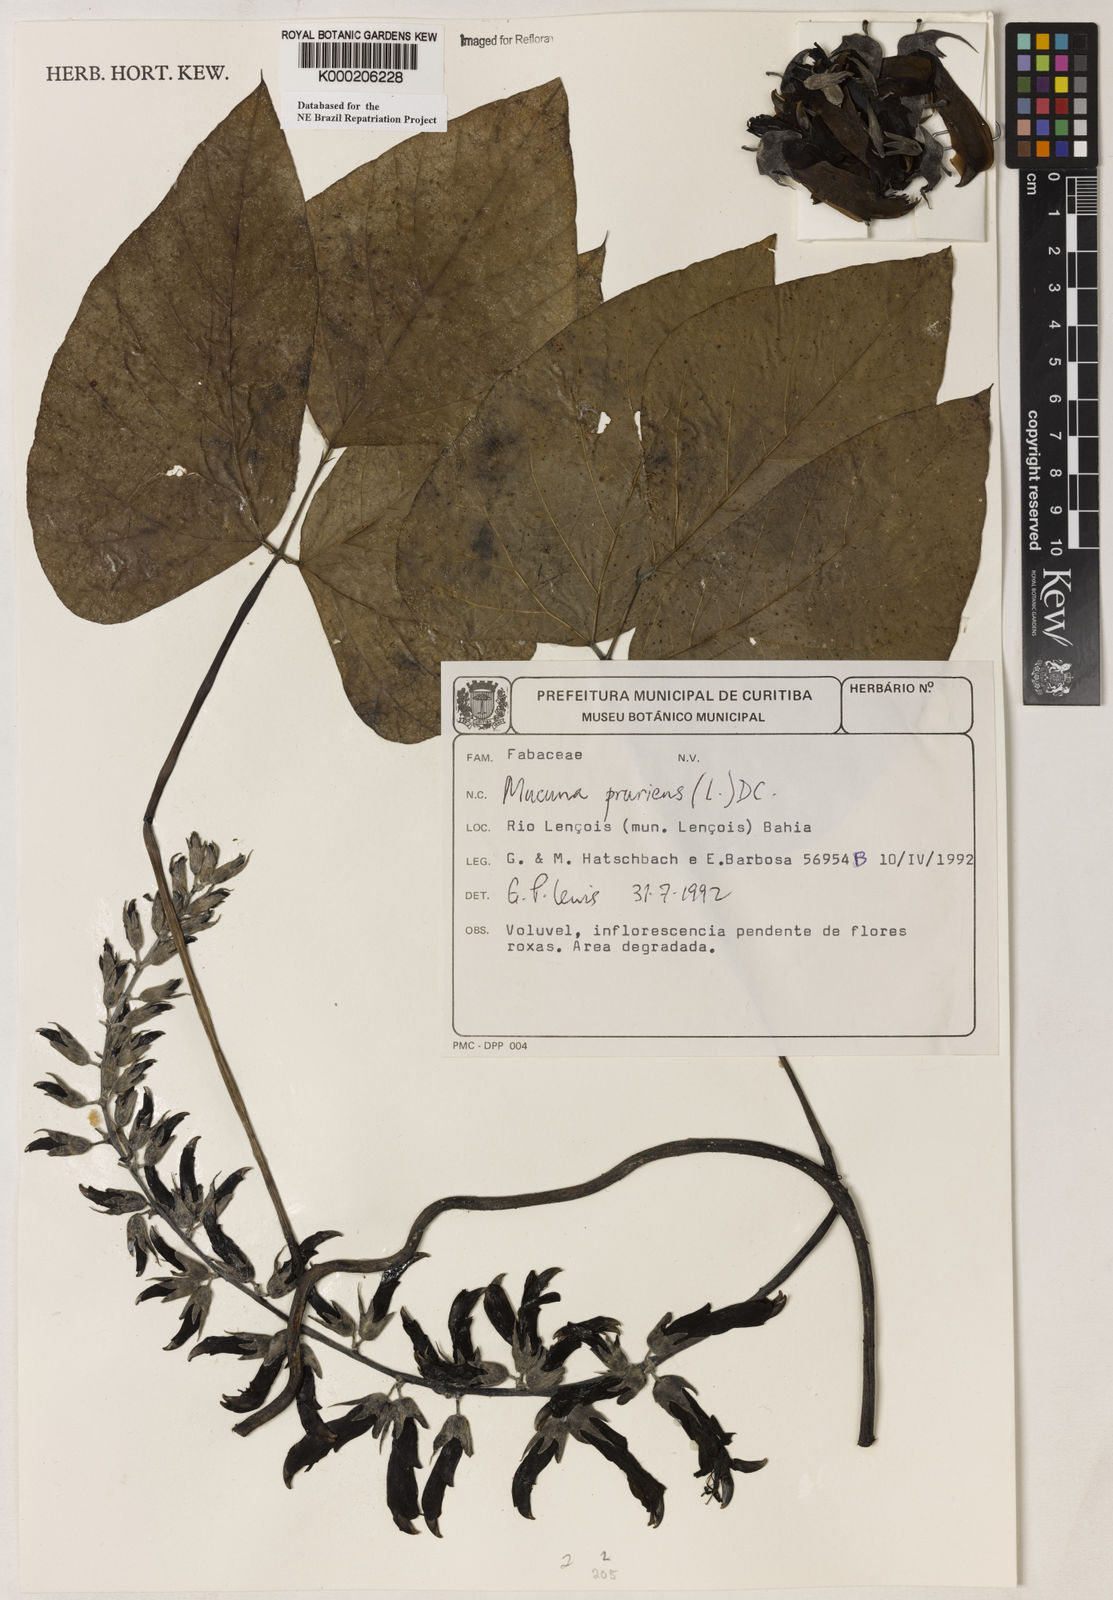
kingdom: Plantae
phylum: Tracheophyta
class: Magnoliopsida
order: Fabales
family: Fabaceae
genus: Mucuna
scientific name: Mucuna pruriens
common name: Cow-itch
